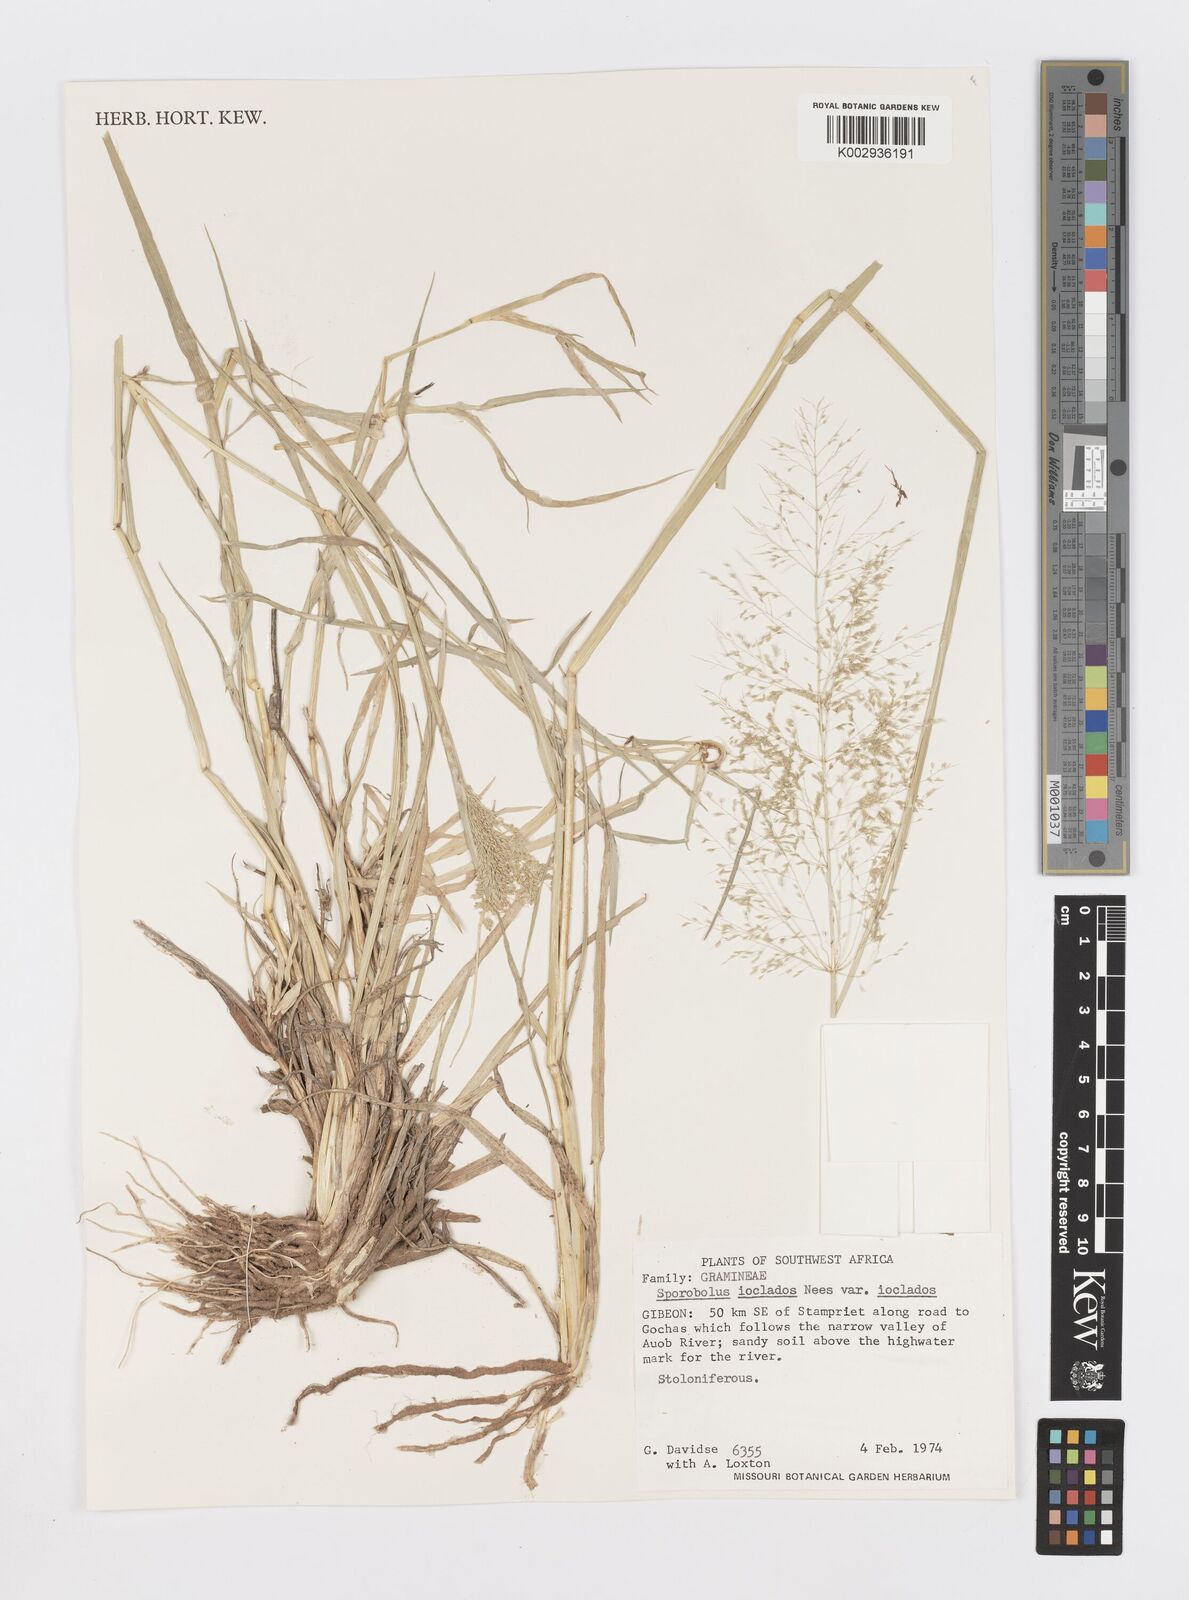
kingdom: Plantae
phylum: Tracheophyta
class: Liliopsida
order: Poales
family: Poaceae
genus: Sporobolus
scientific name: Sporobolus ioclados
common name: Pan dropseed
